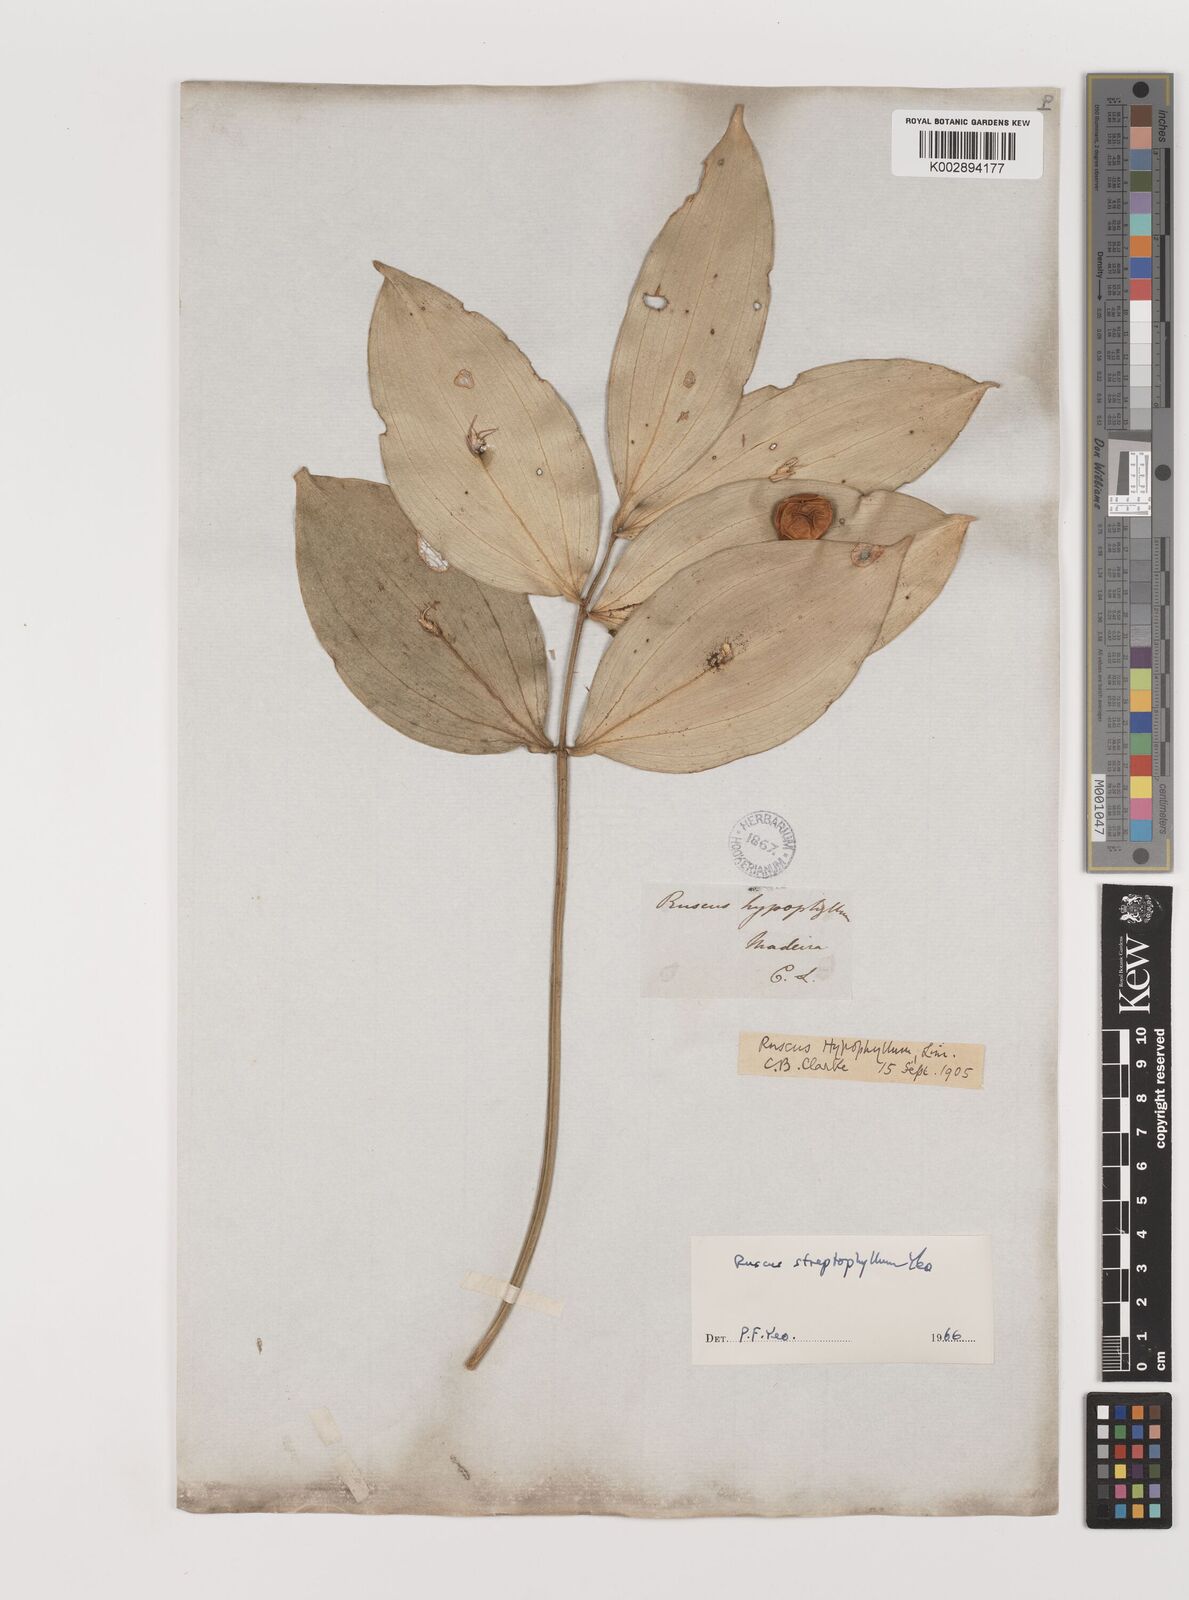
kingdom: Plantae
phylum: Tracheophyta
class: Liliopsida
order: Asparagales
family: Asparagaceae
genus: Ruscus
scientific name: Ruscus hypophyllum
